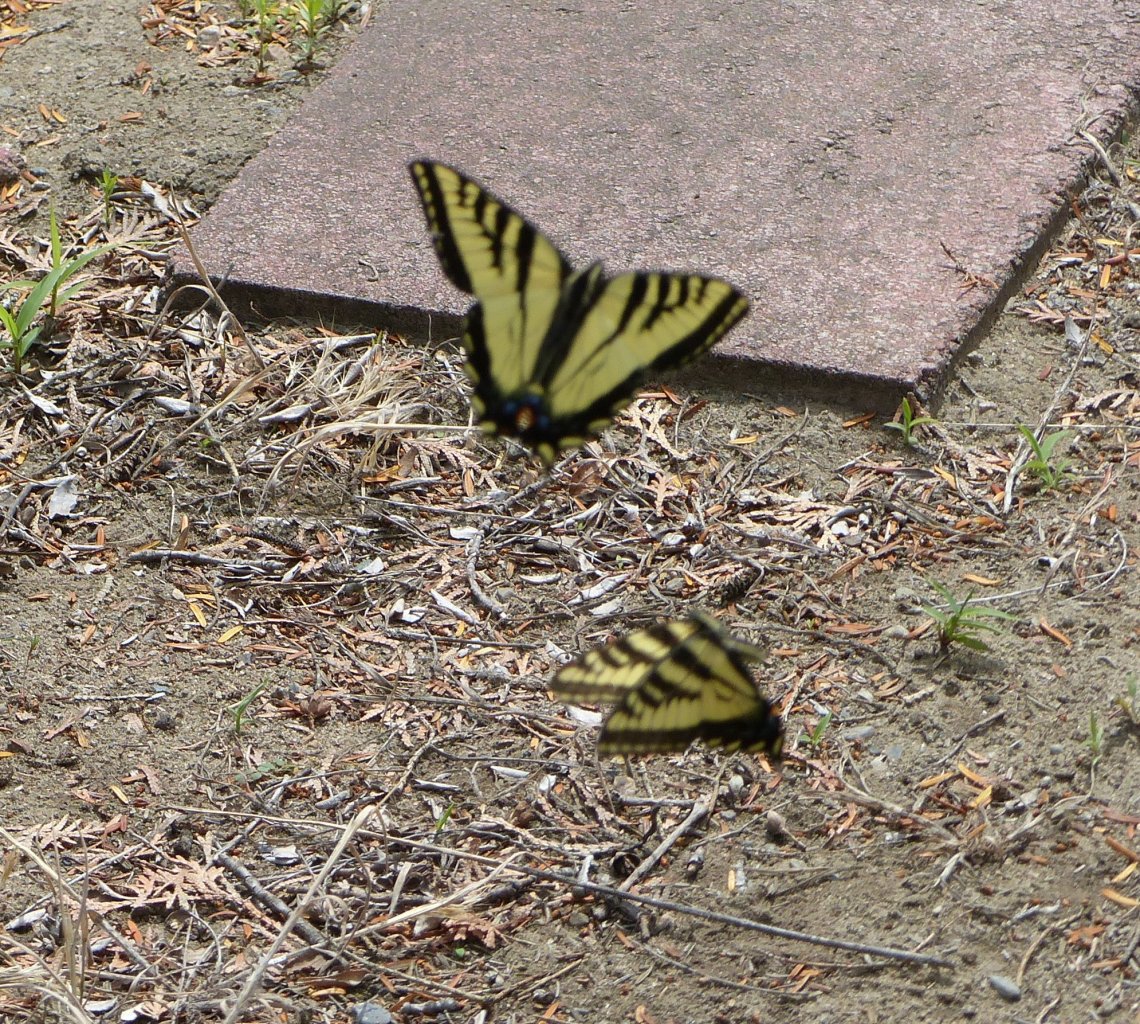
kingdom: Animalia
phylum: Arthropoda
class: Insecta
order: Lepidoptera
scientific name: Lepidoptera
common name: Butterflies
